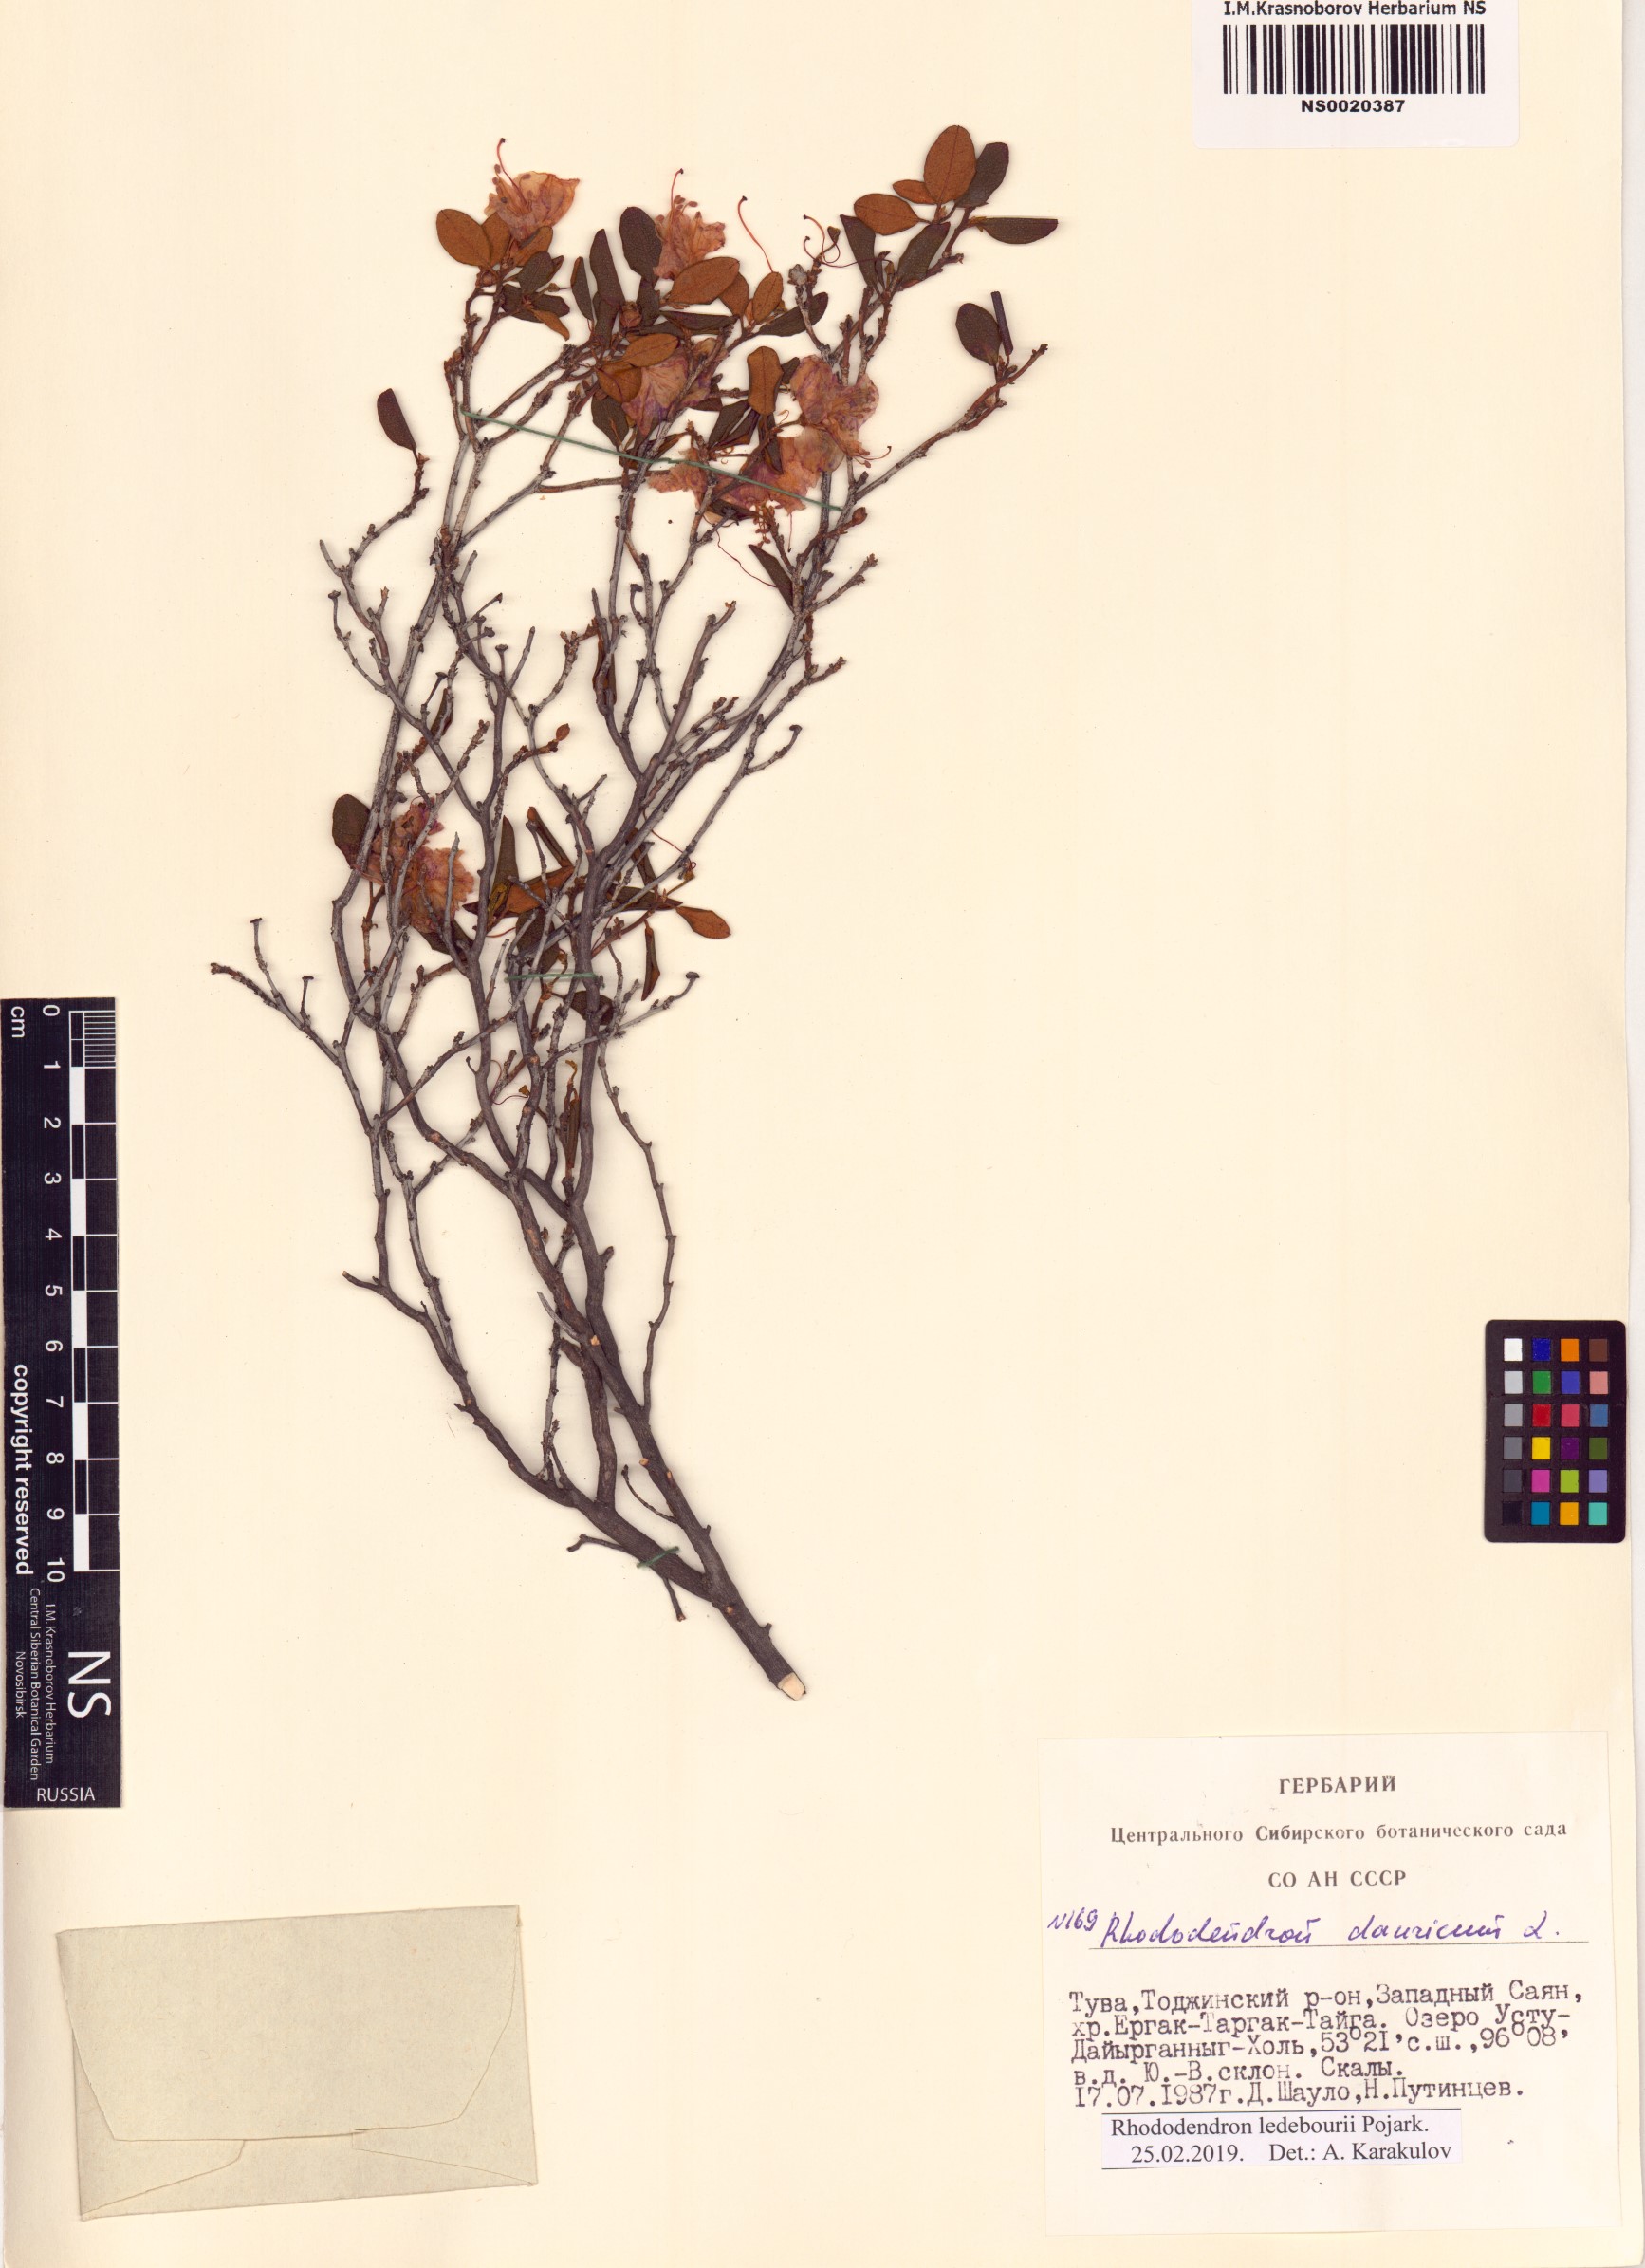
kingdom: Plantae
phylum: Tracheophyta
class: Magnoliopsida
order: Ericales
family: Ericaceae
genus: Rhododendron
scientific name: Rhododendron dauricum
